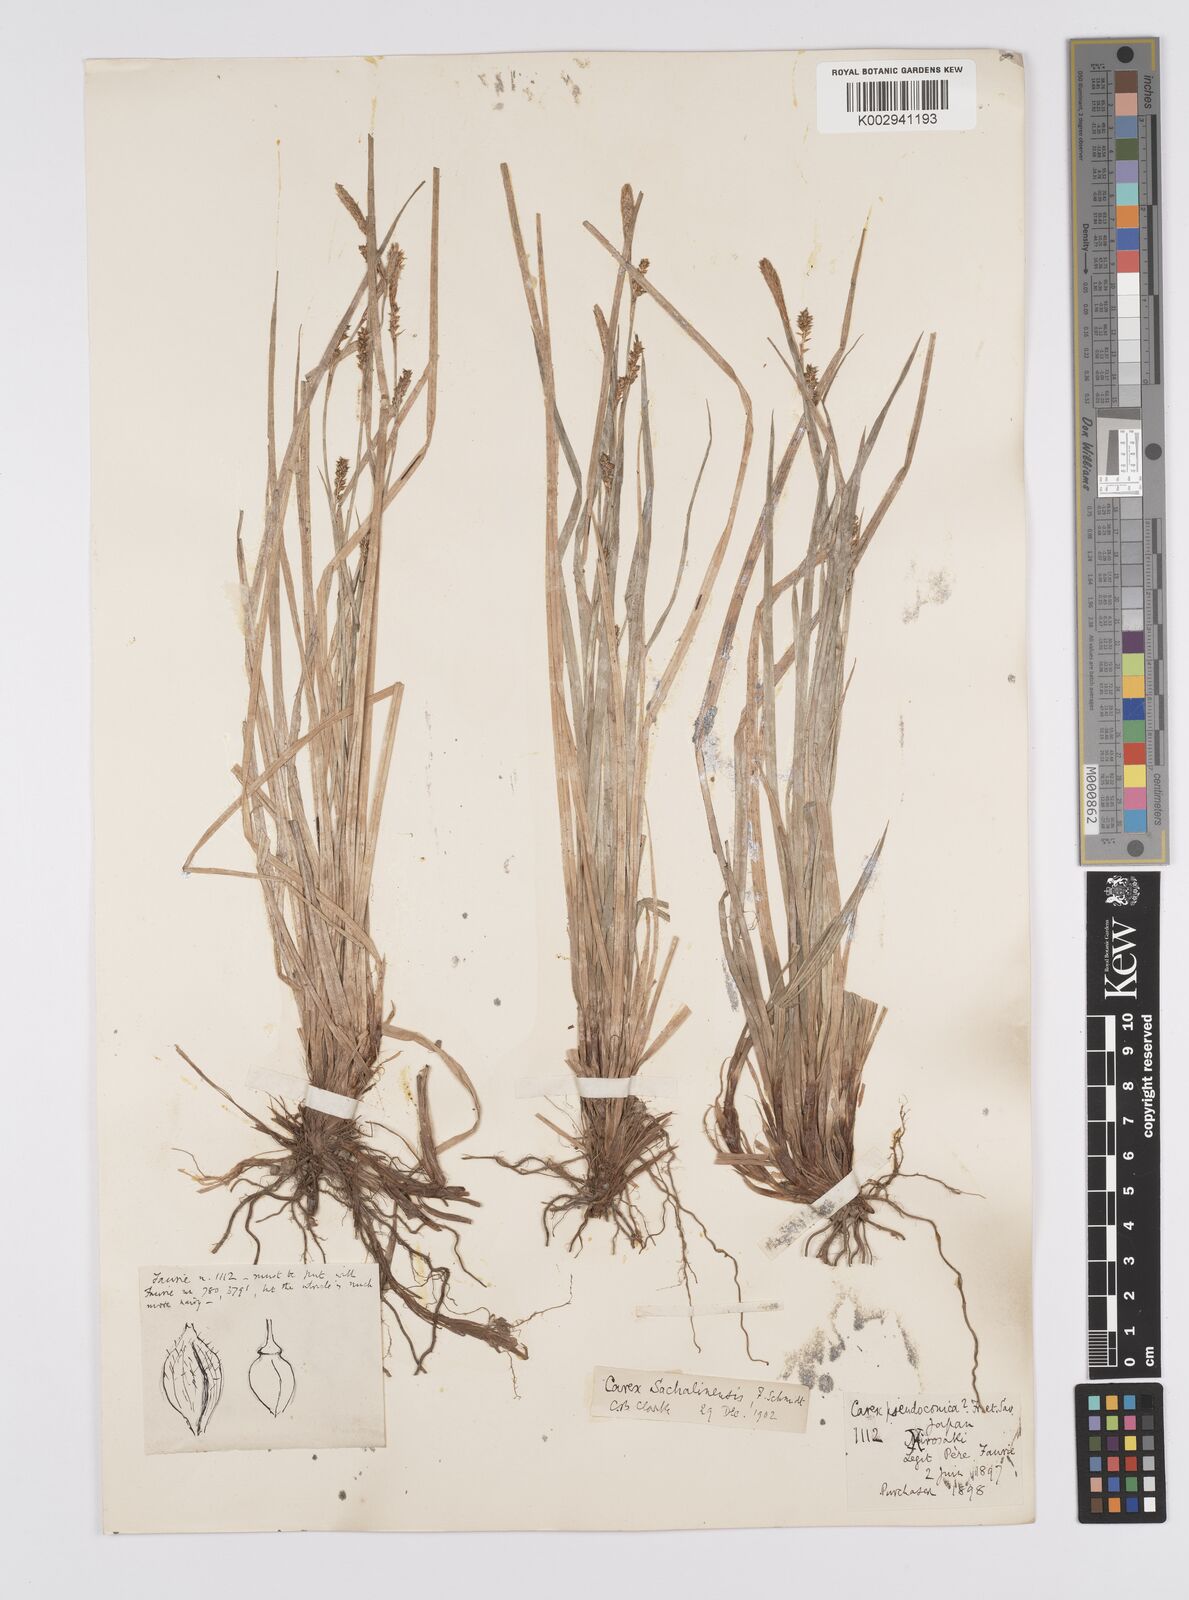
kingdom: Plantae
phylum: Tracheophyta
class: Liliopsida
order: Poales
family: Cyperaceae
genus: Carex
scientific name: Carex pisiformis
